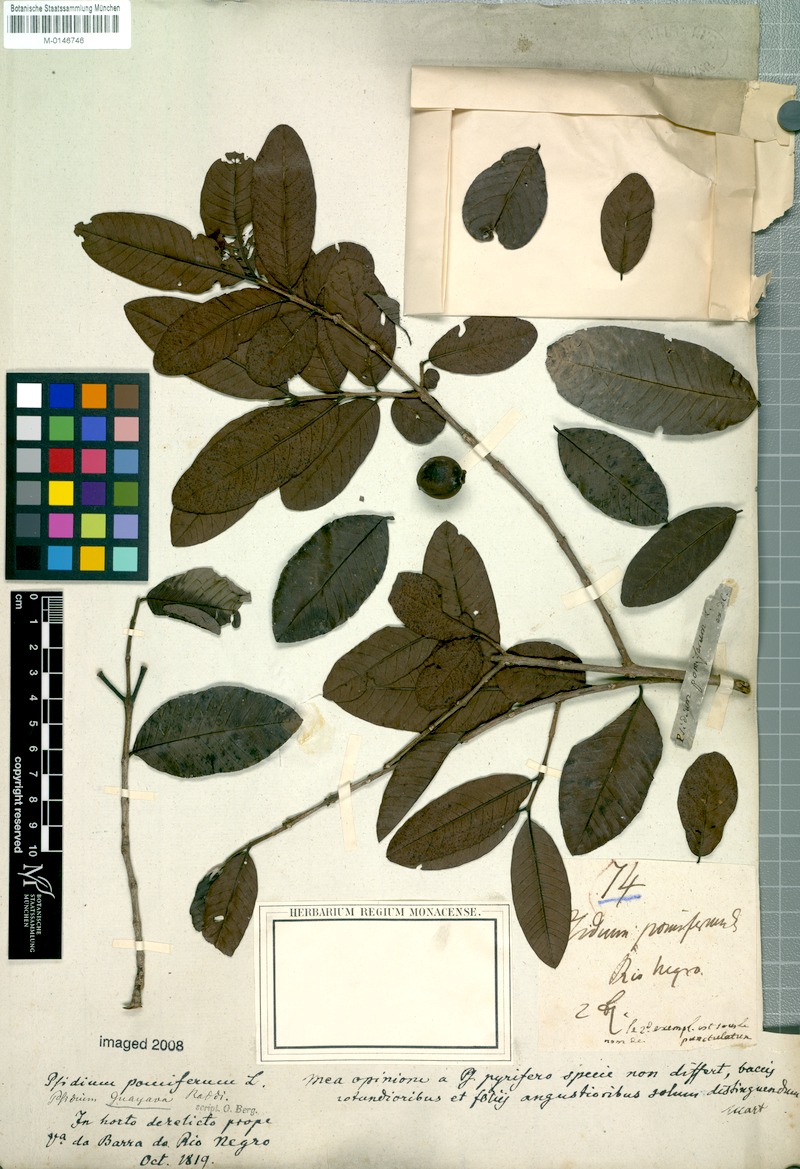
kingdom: Plantae
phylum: Tracheophyta
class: Magnoliopsida
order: Myrtales
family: Myrtaceae
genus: Psidium
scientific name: Psidium guajava
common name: Guava
